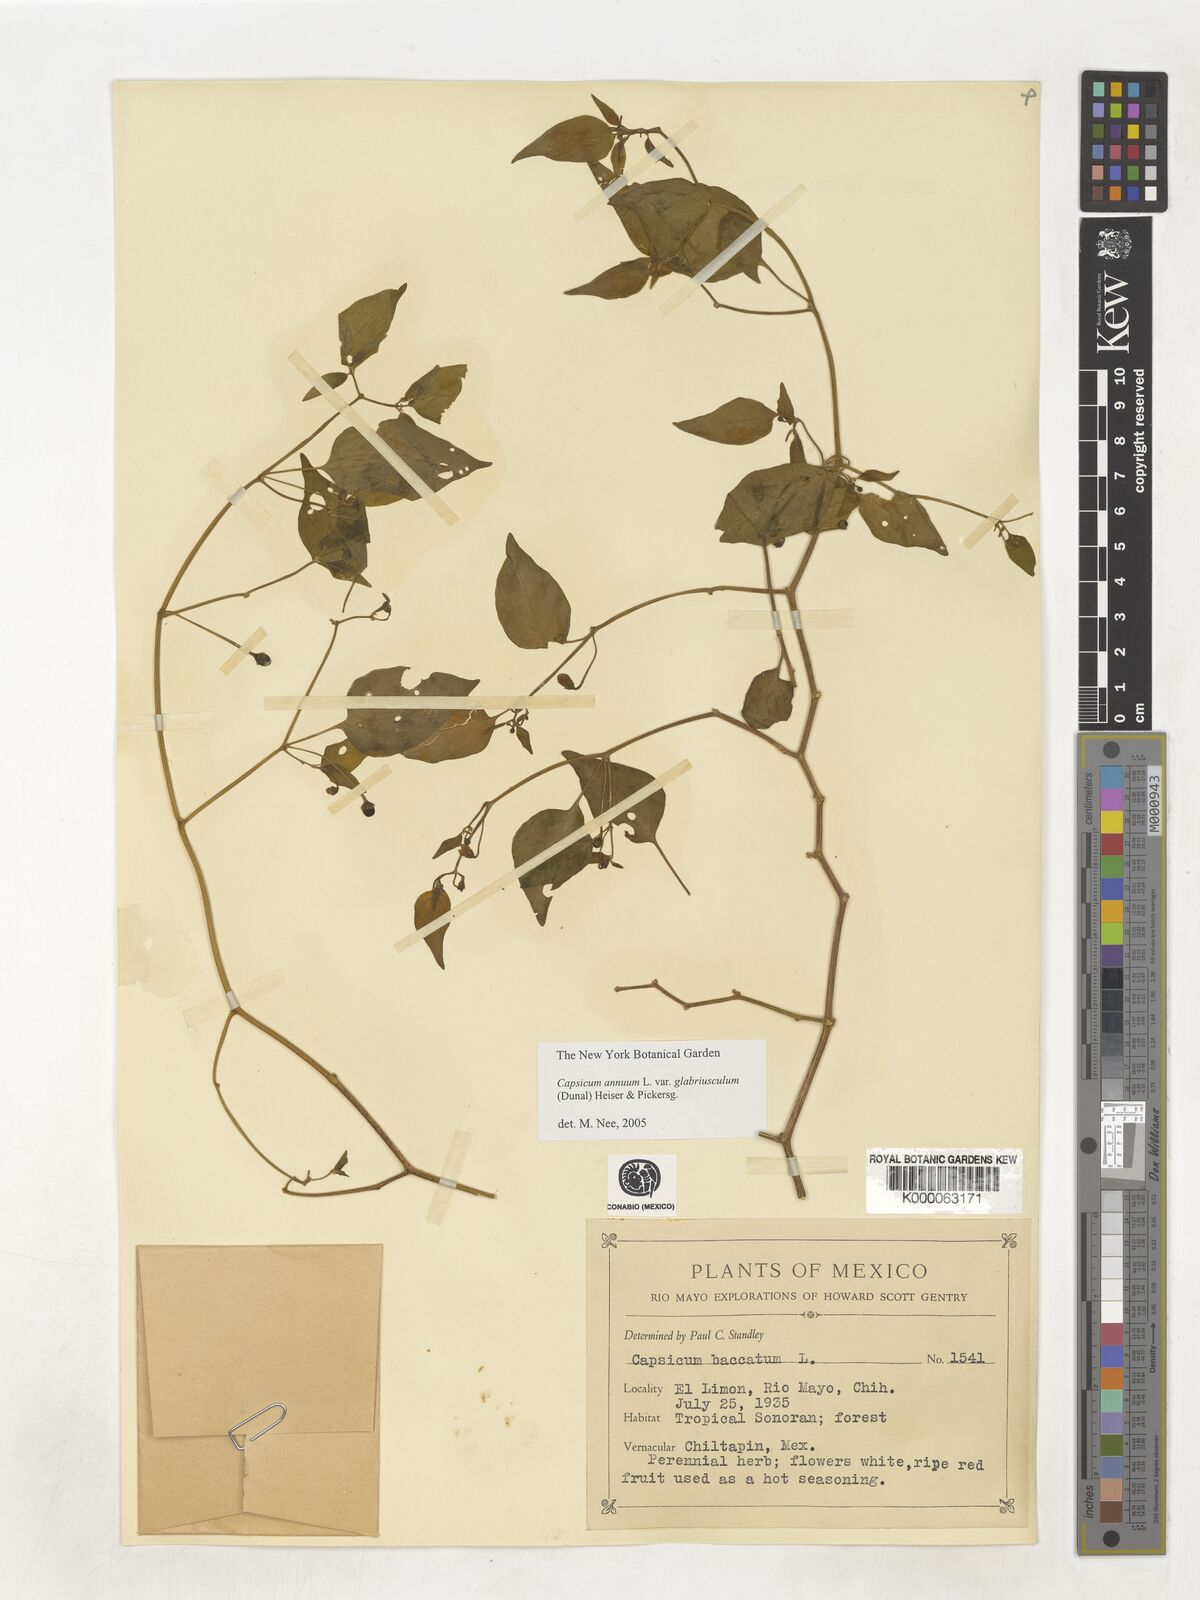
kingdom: Plantae
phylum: Tracheophyta
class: Magnoliopsida
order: Solanales
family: Solanaceae
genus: Capsicum
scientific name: Capsicum baccatum
